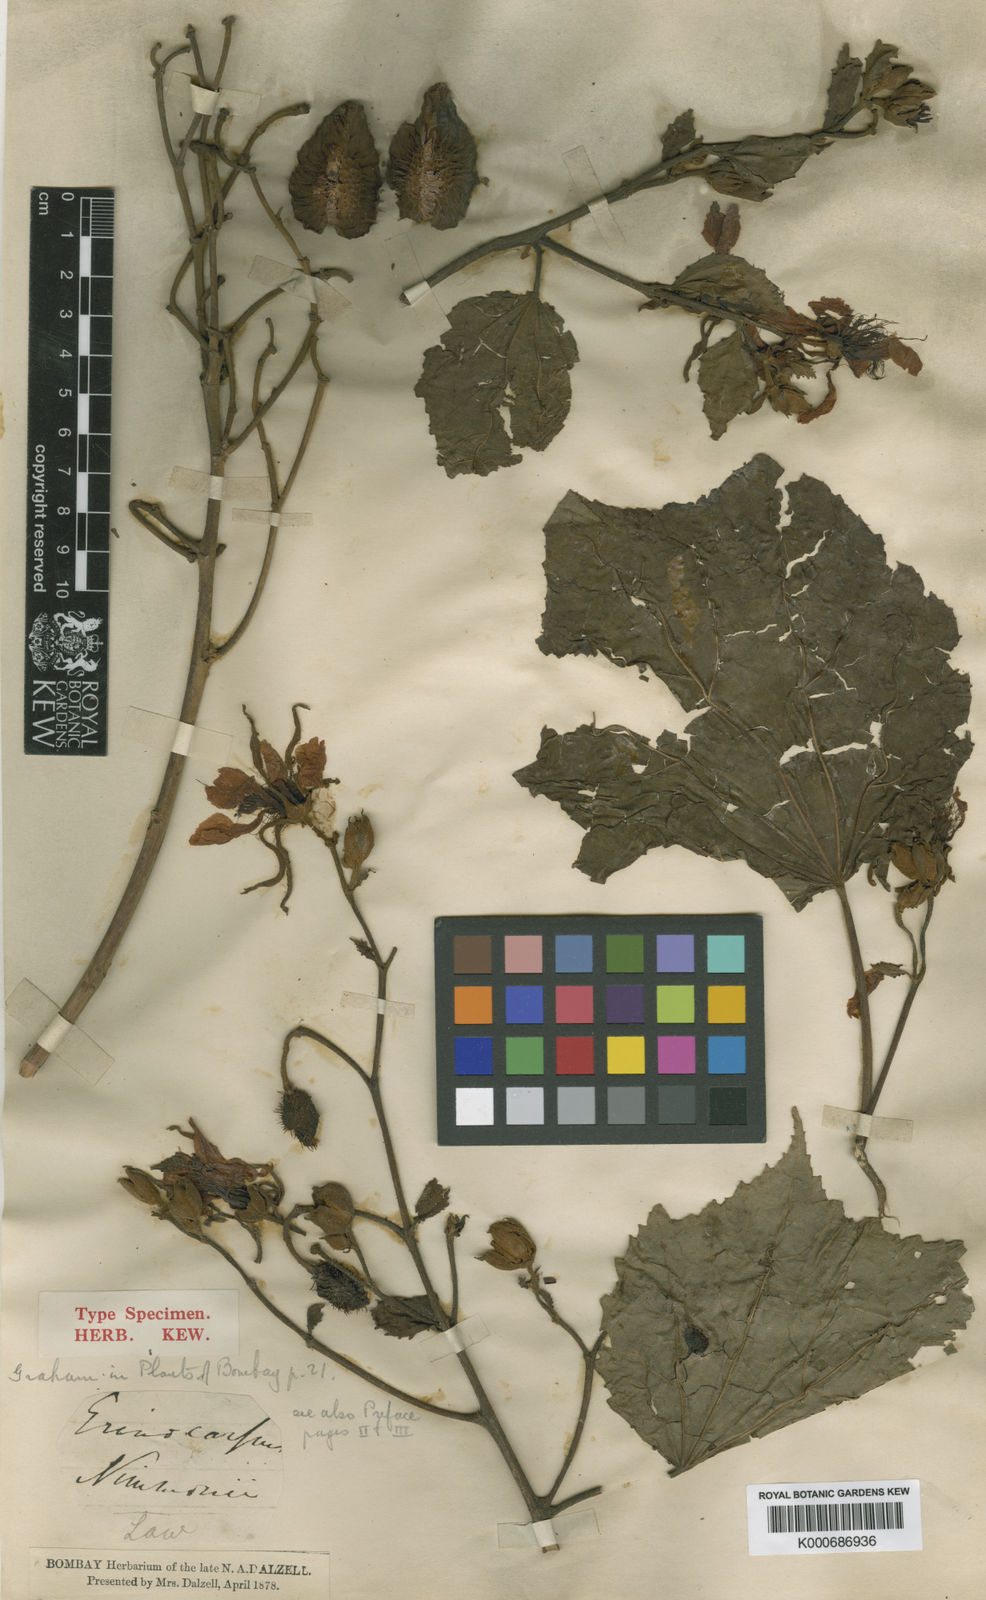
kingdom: Plantae
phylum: Tracheophyta
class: Magnoliopsida
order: Malvales
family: Malvaceae
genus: Erinocarpus
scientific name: Erinocarpus nimmonii
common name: Nimmo's erinocarpus
